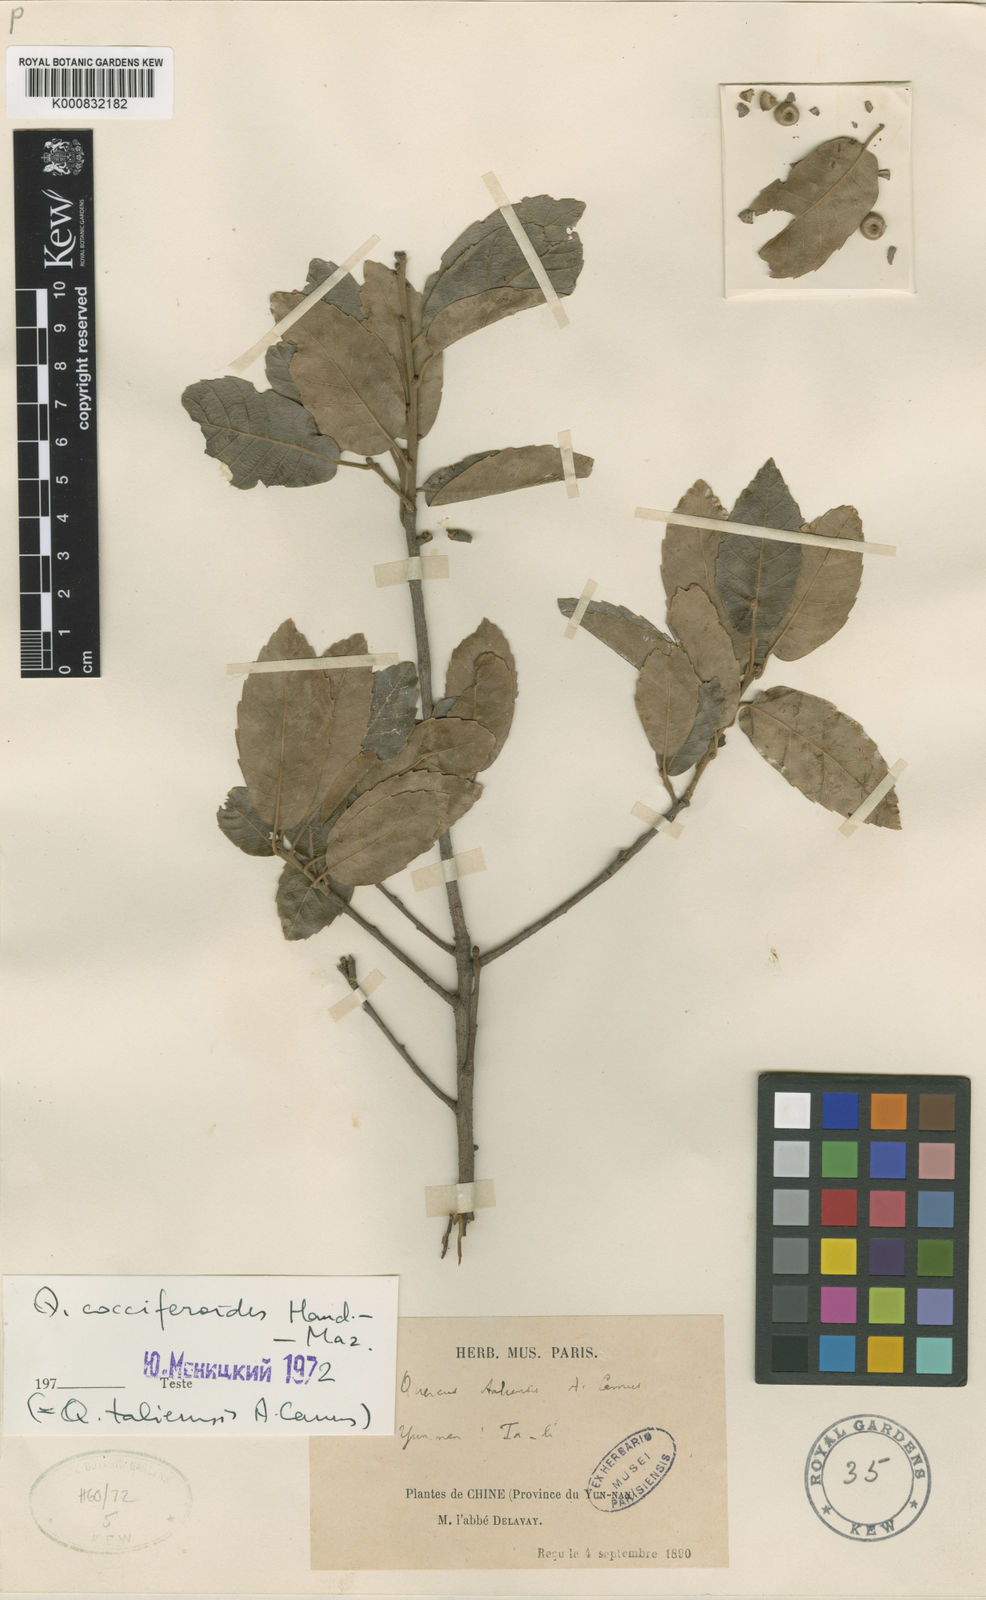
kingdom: Plantae
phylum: Tracheophyta
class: Magnoliopsida
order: Fagales
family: Fagaceae
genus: Quercus
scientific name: Quercus cocciferoides
